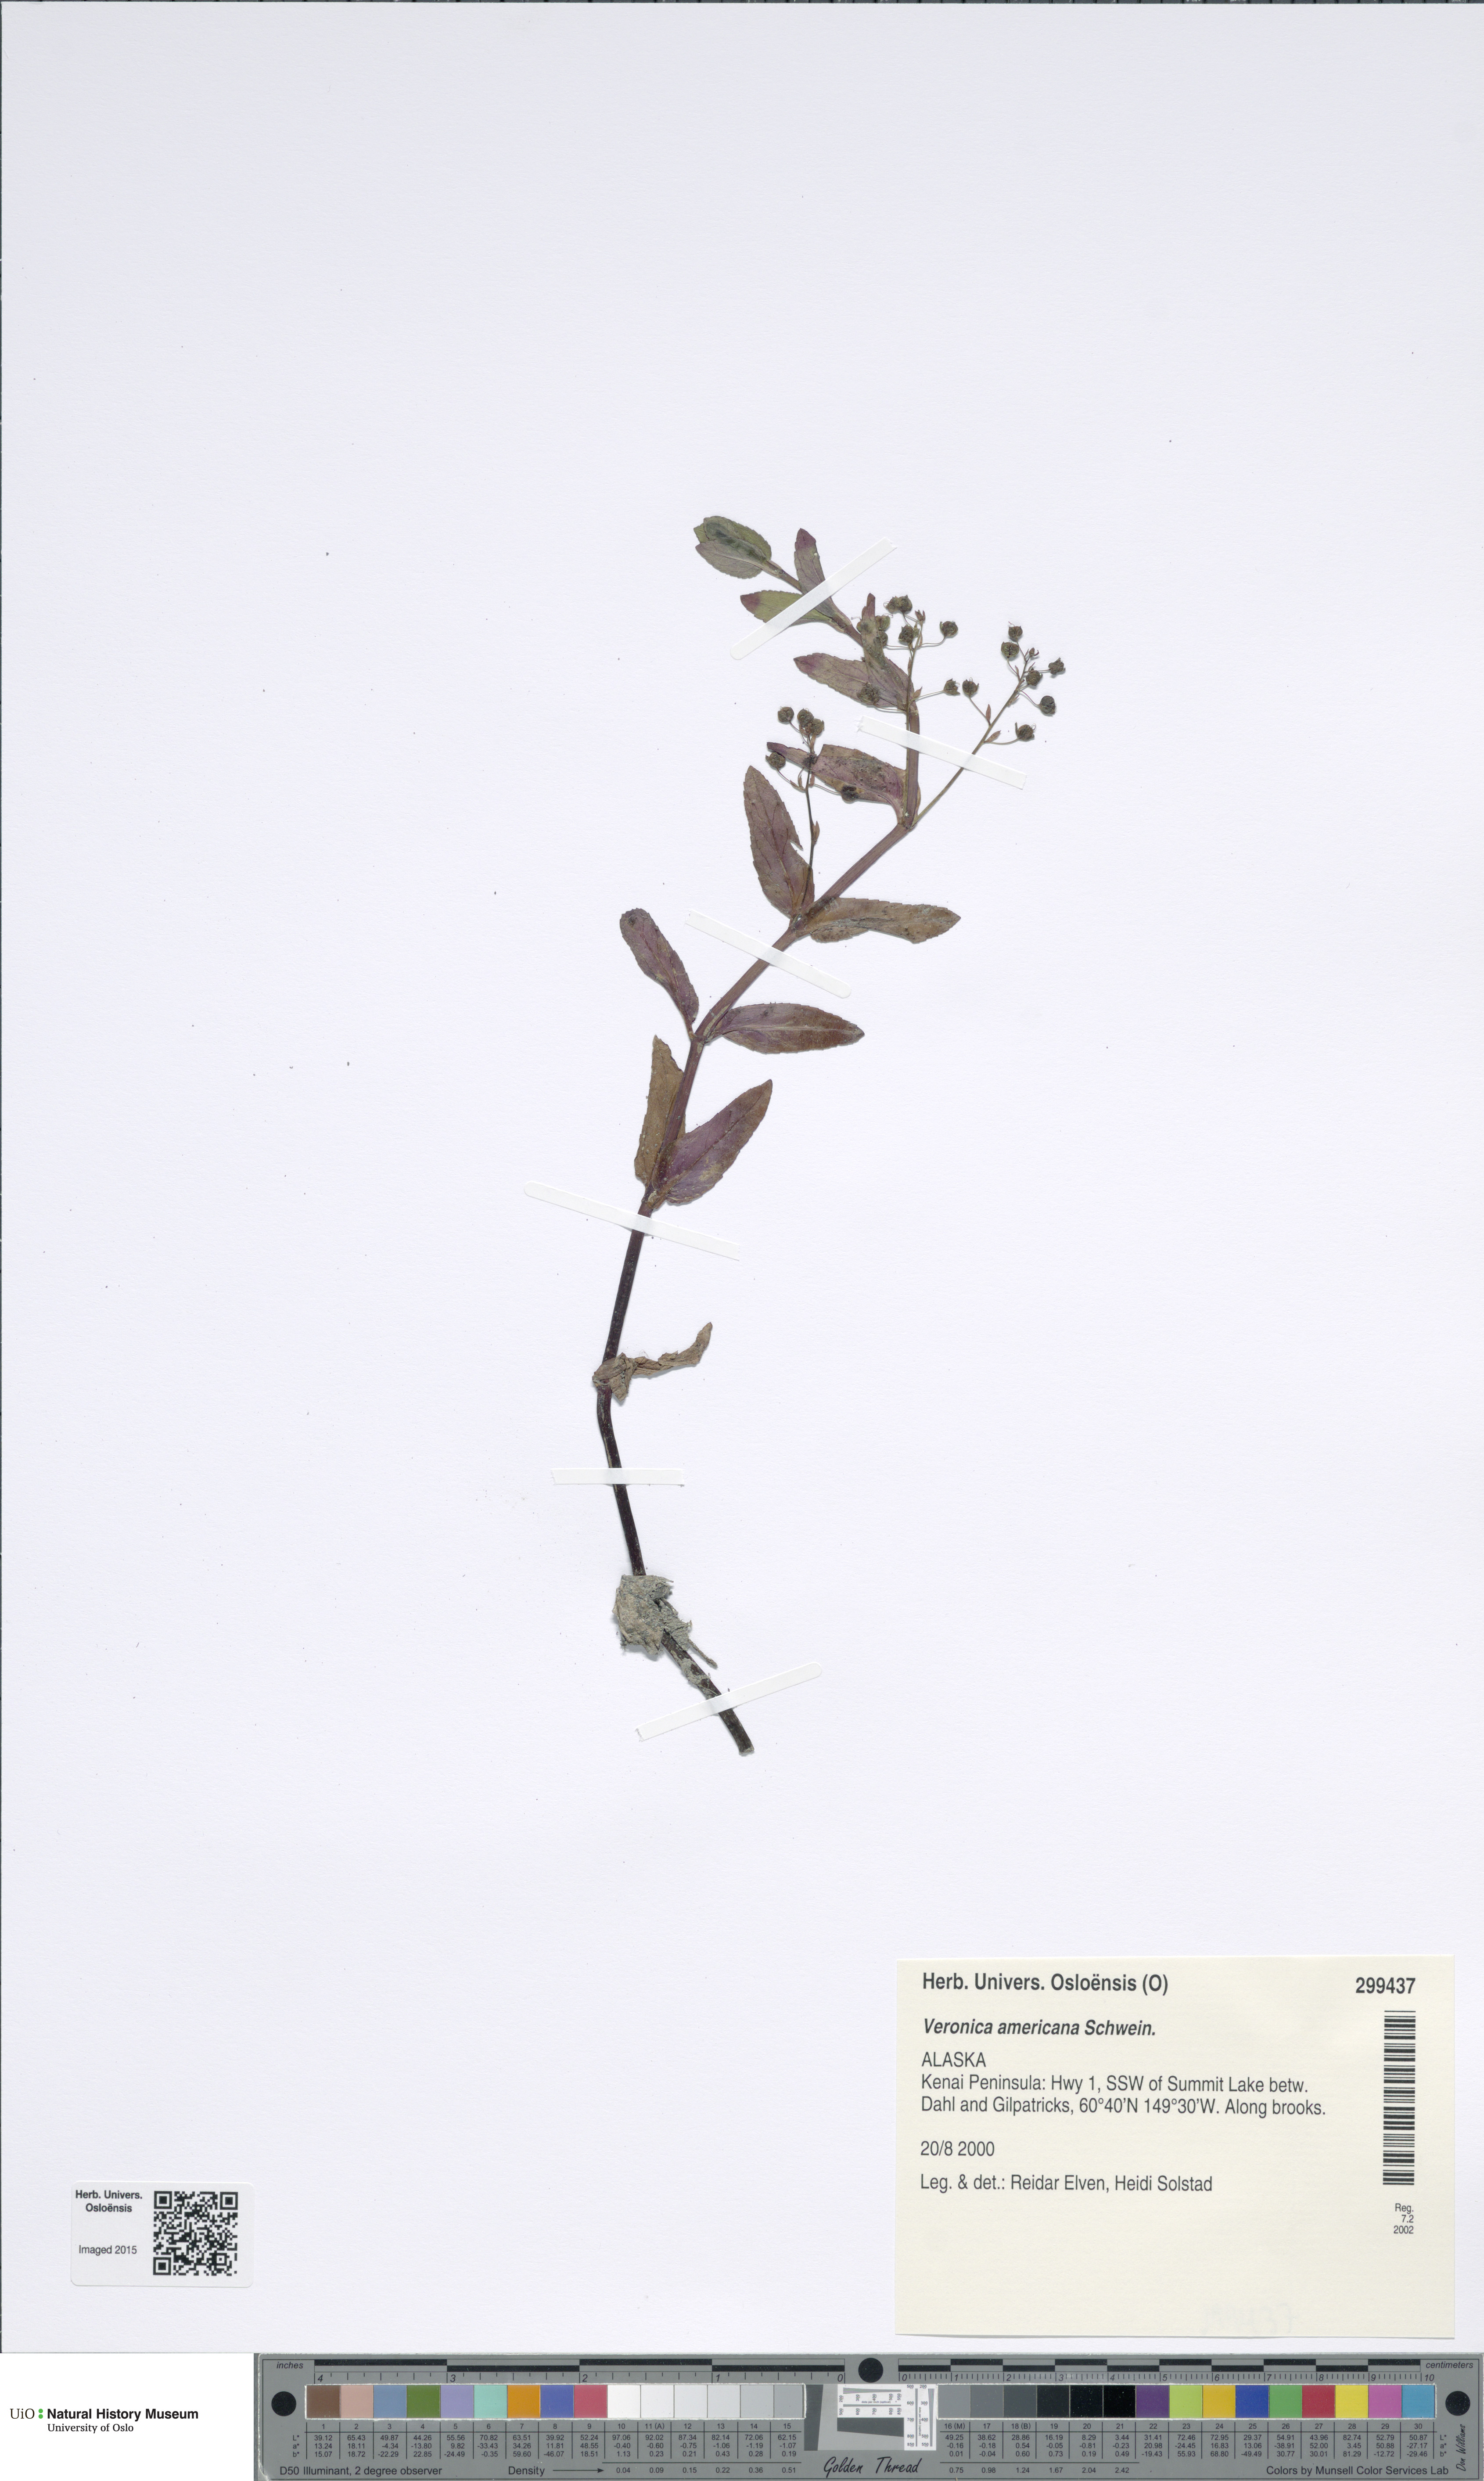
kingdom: Plantae
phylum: Tracheophyta
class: Magnoliopsida
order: Lamiales
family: Plantaginaceae
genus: Veronica
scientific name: Veronica americana
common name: American brooklime
